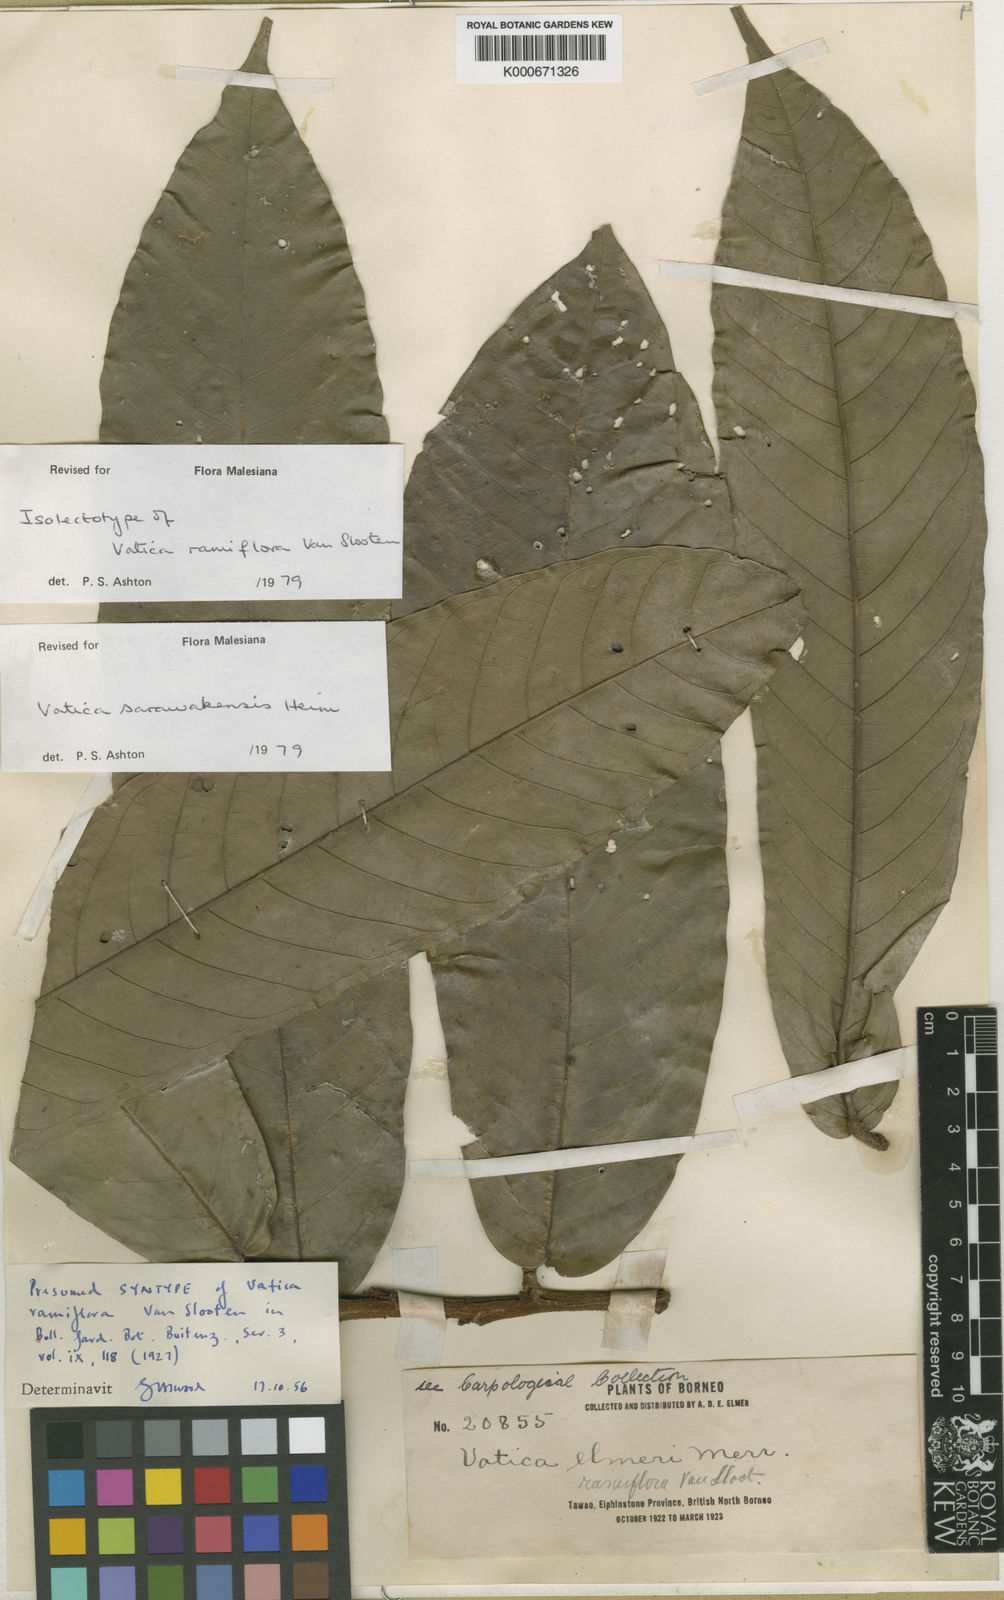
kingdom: Plantae
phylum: Tracheophyta
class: Magnoliopsida
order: Malvales
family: Dipterocarpaceae
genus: Vatica
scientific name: Vatica sarawakensis
